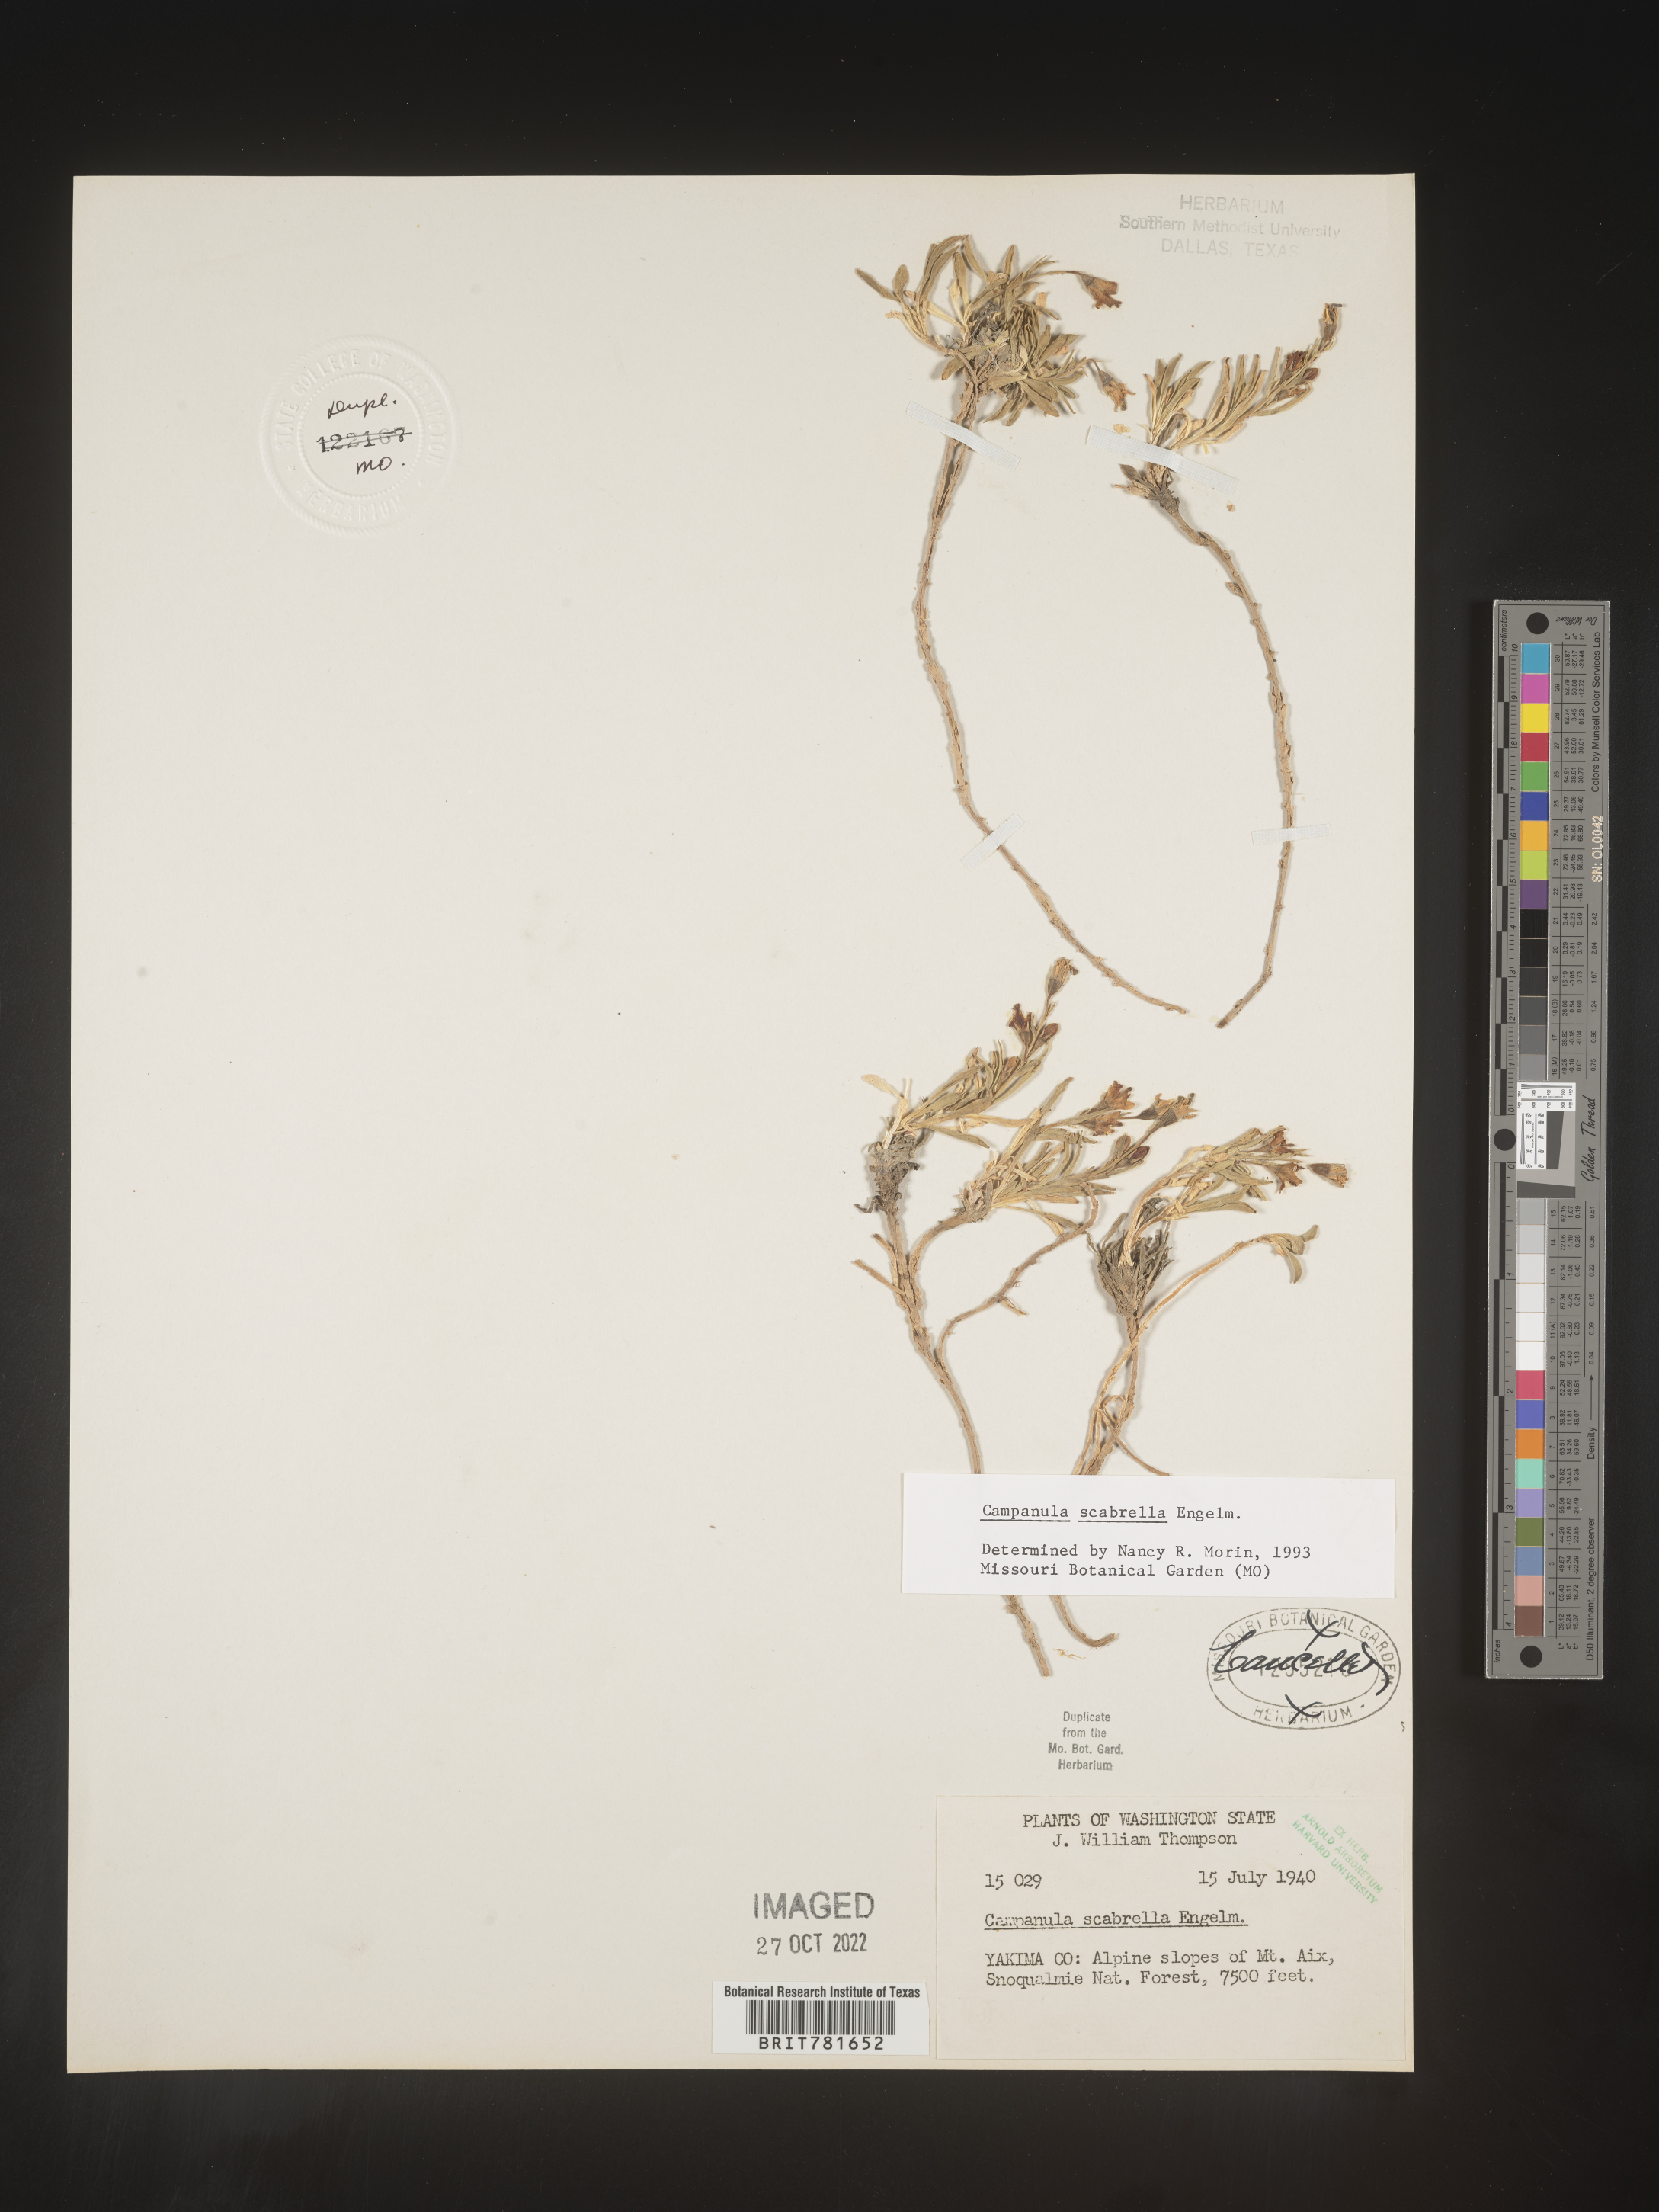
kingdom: Plantae
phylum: Tracheophyta
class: Magnoliopsida
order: Asterales
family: Campanulaceae
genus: Campanula
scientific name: Campanula
